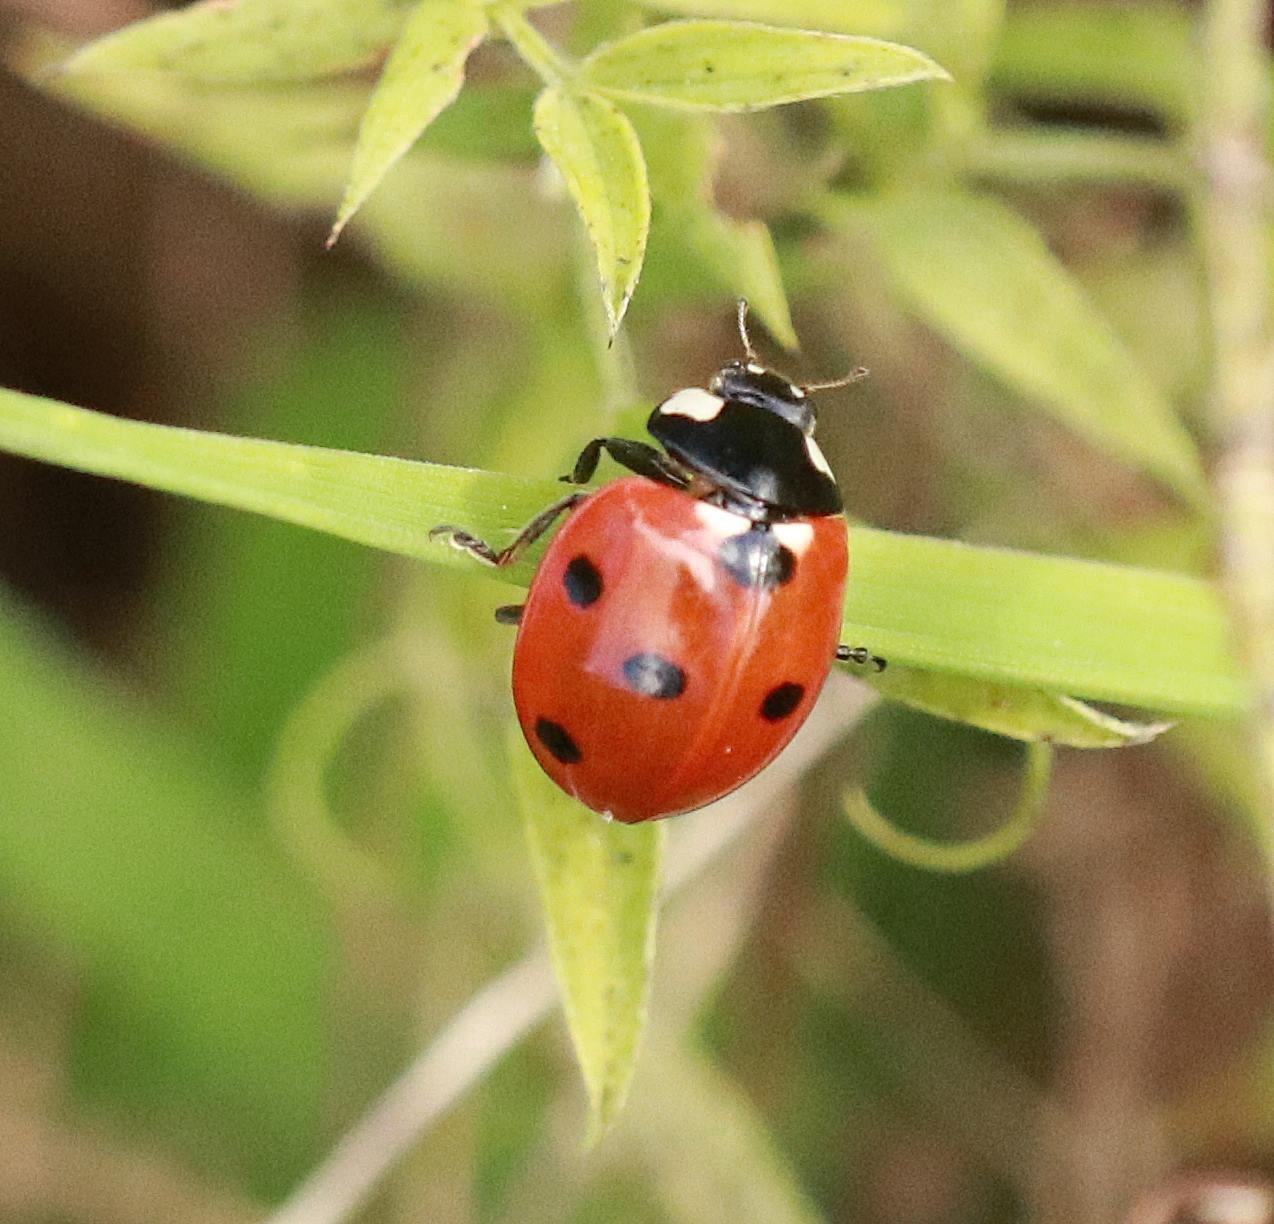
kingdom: Animalia
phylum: Arthropoda
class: Insecta
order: Coleoptera
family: Coccinellidae
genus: Coccinella
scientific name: Coccinella septempunctata
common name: Syvplettet mariehøne
